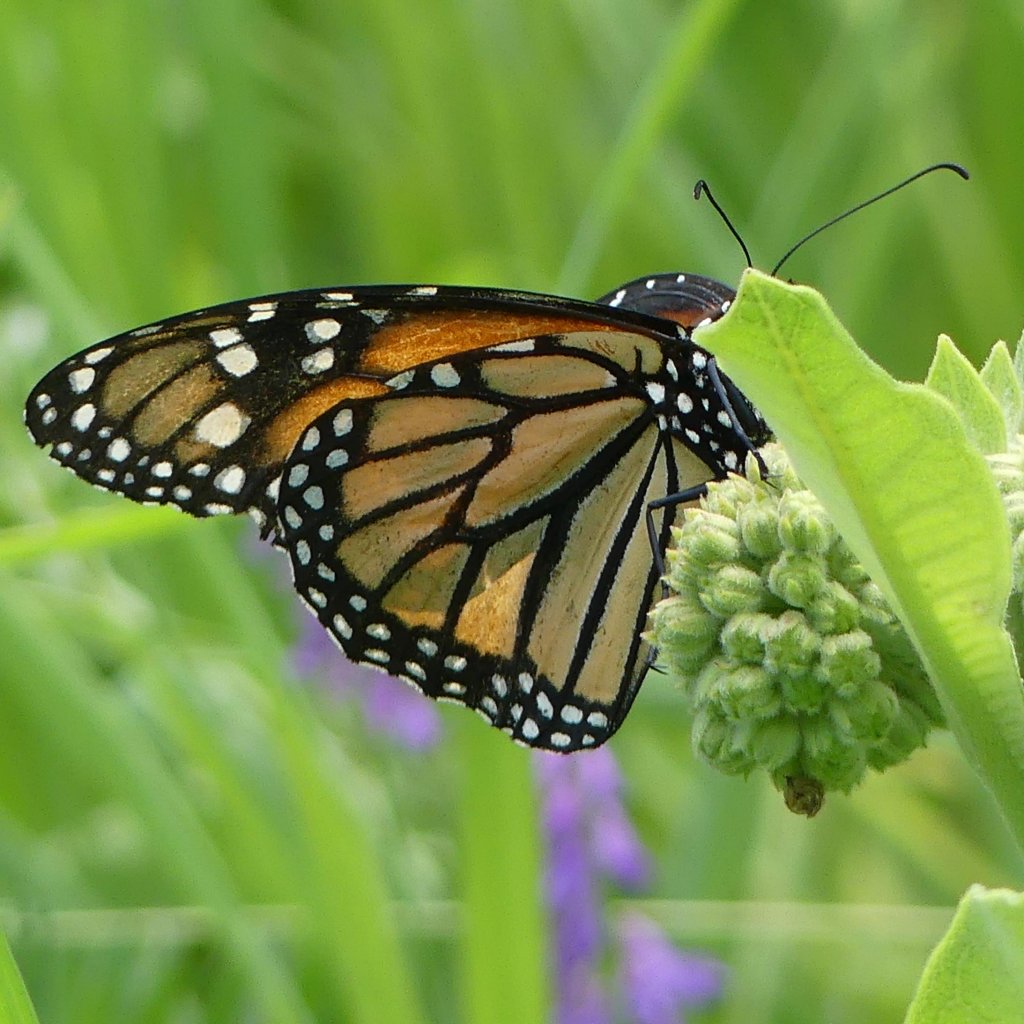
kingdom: Animalia
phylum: Arthropoda
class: Insecta
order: Lepidoptera
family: Nymphalidae
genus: Danaus
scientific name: Danaus plexippus
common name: Monarch
